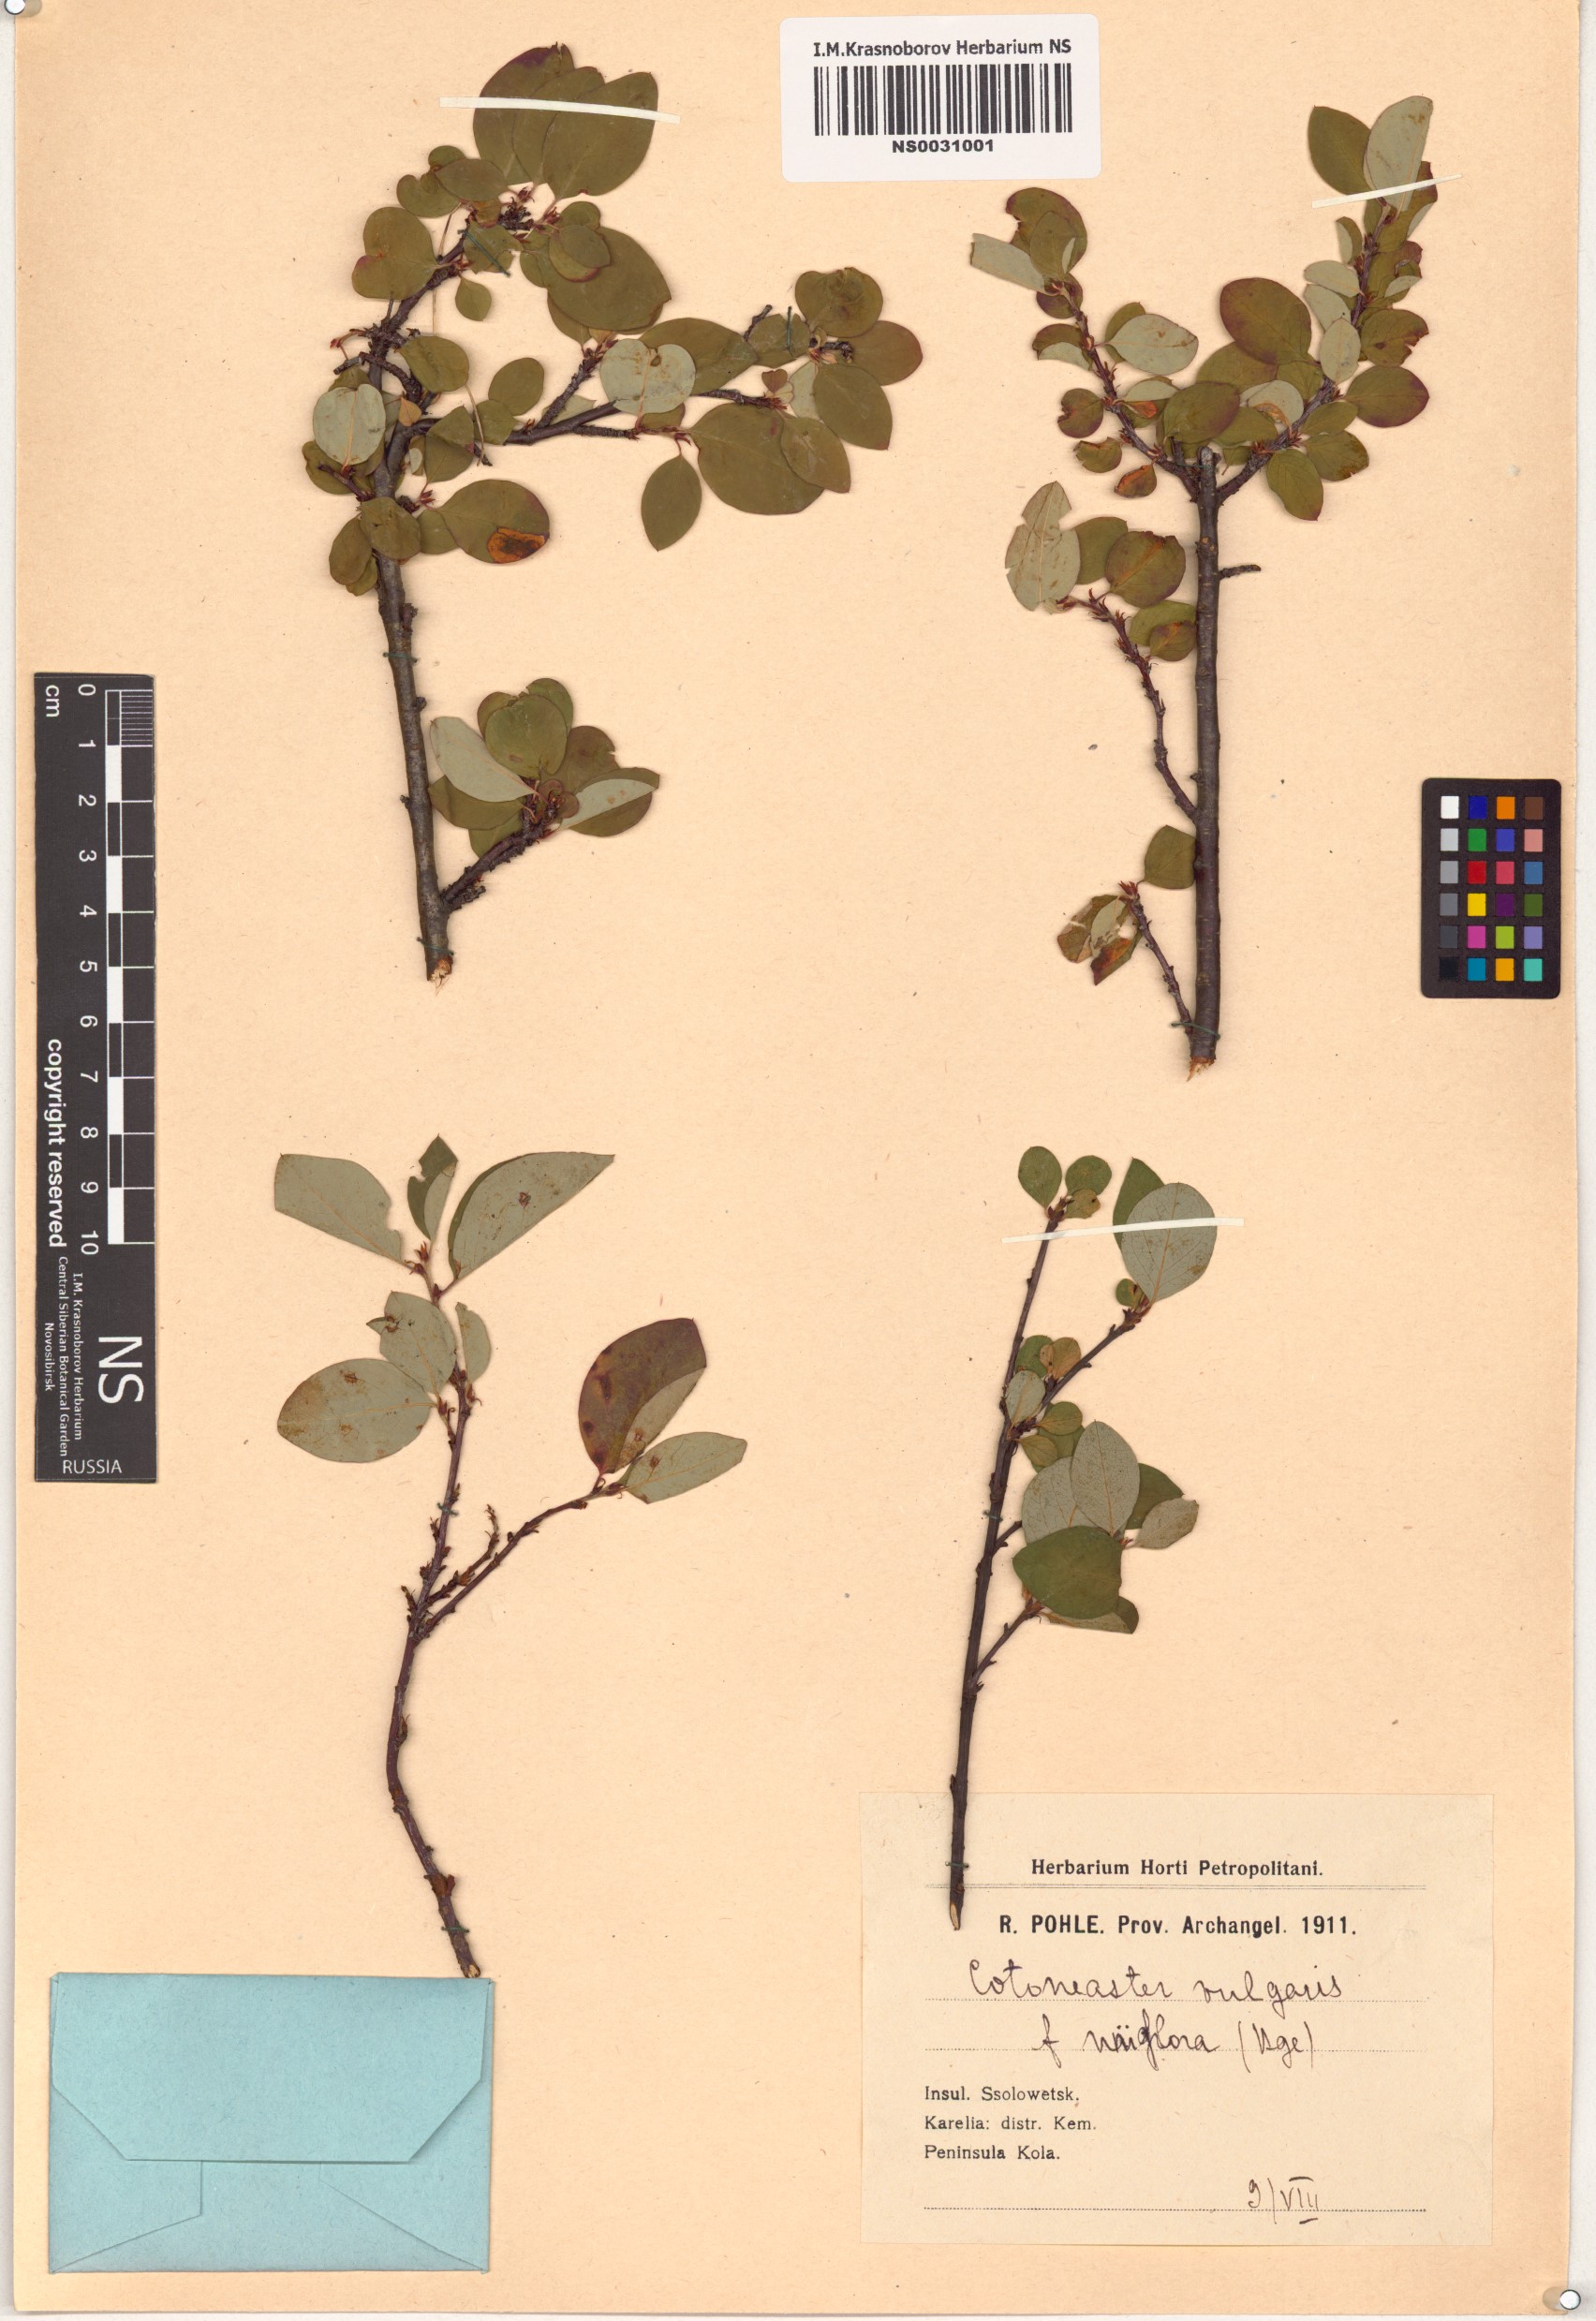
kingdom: Plantae
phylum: Tracheophyta
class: Magnoliopsida
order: Rosales
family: Rosaceae
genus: Cotoneaster
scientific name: Cotoneaster uniflorus
